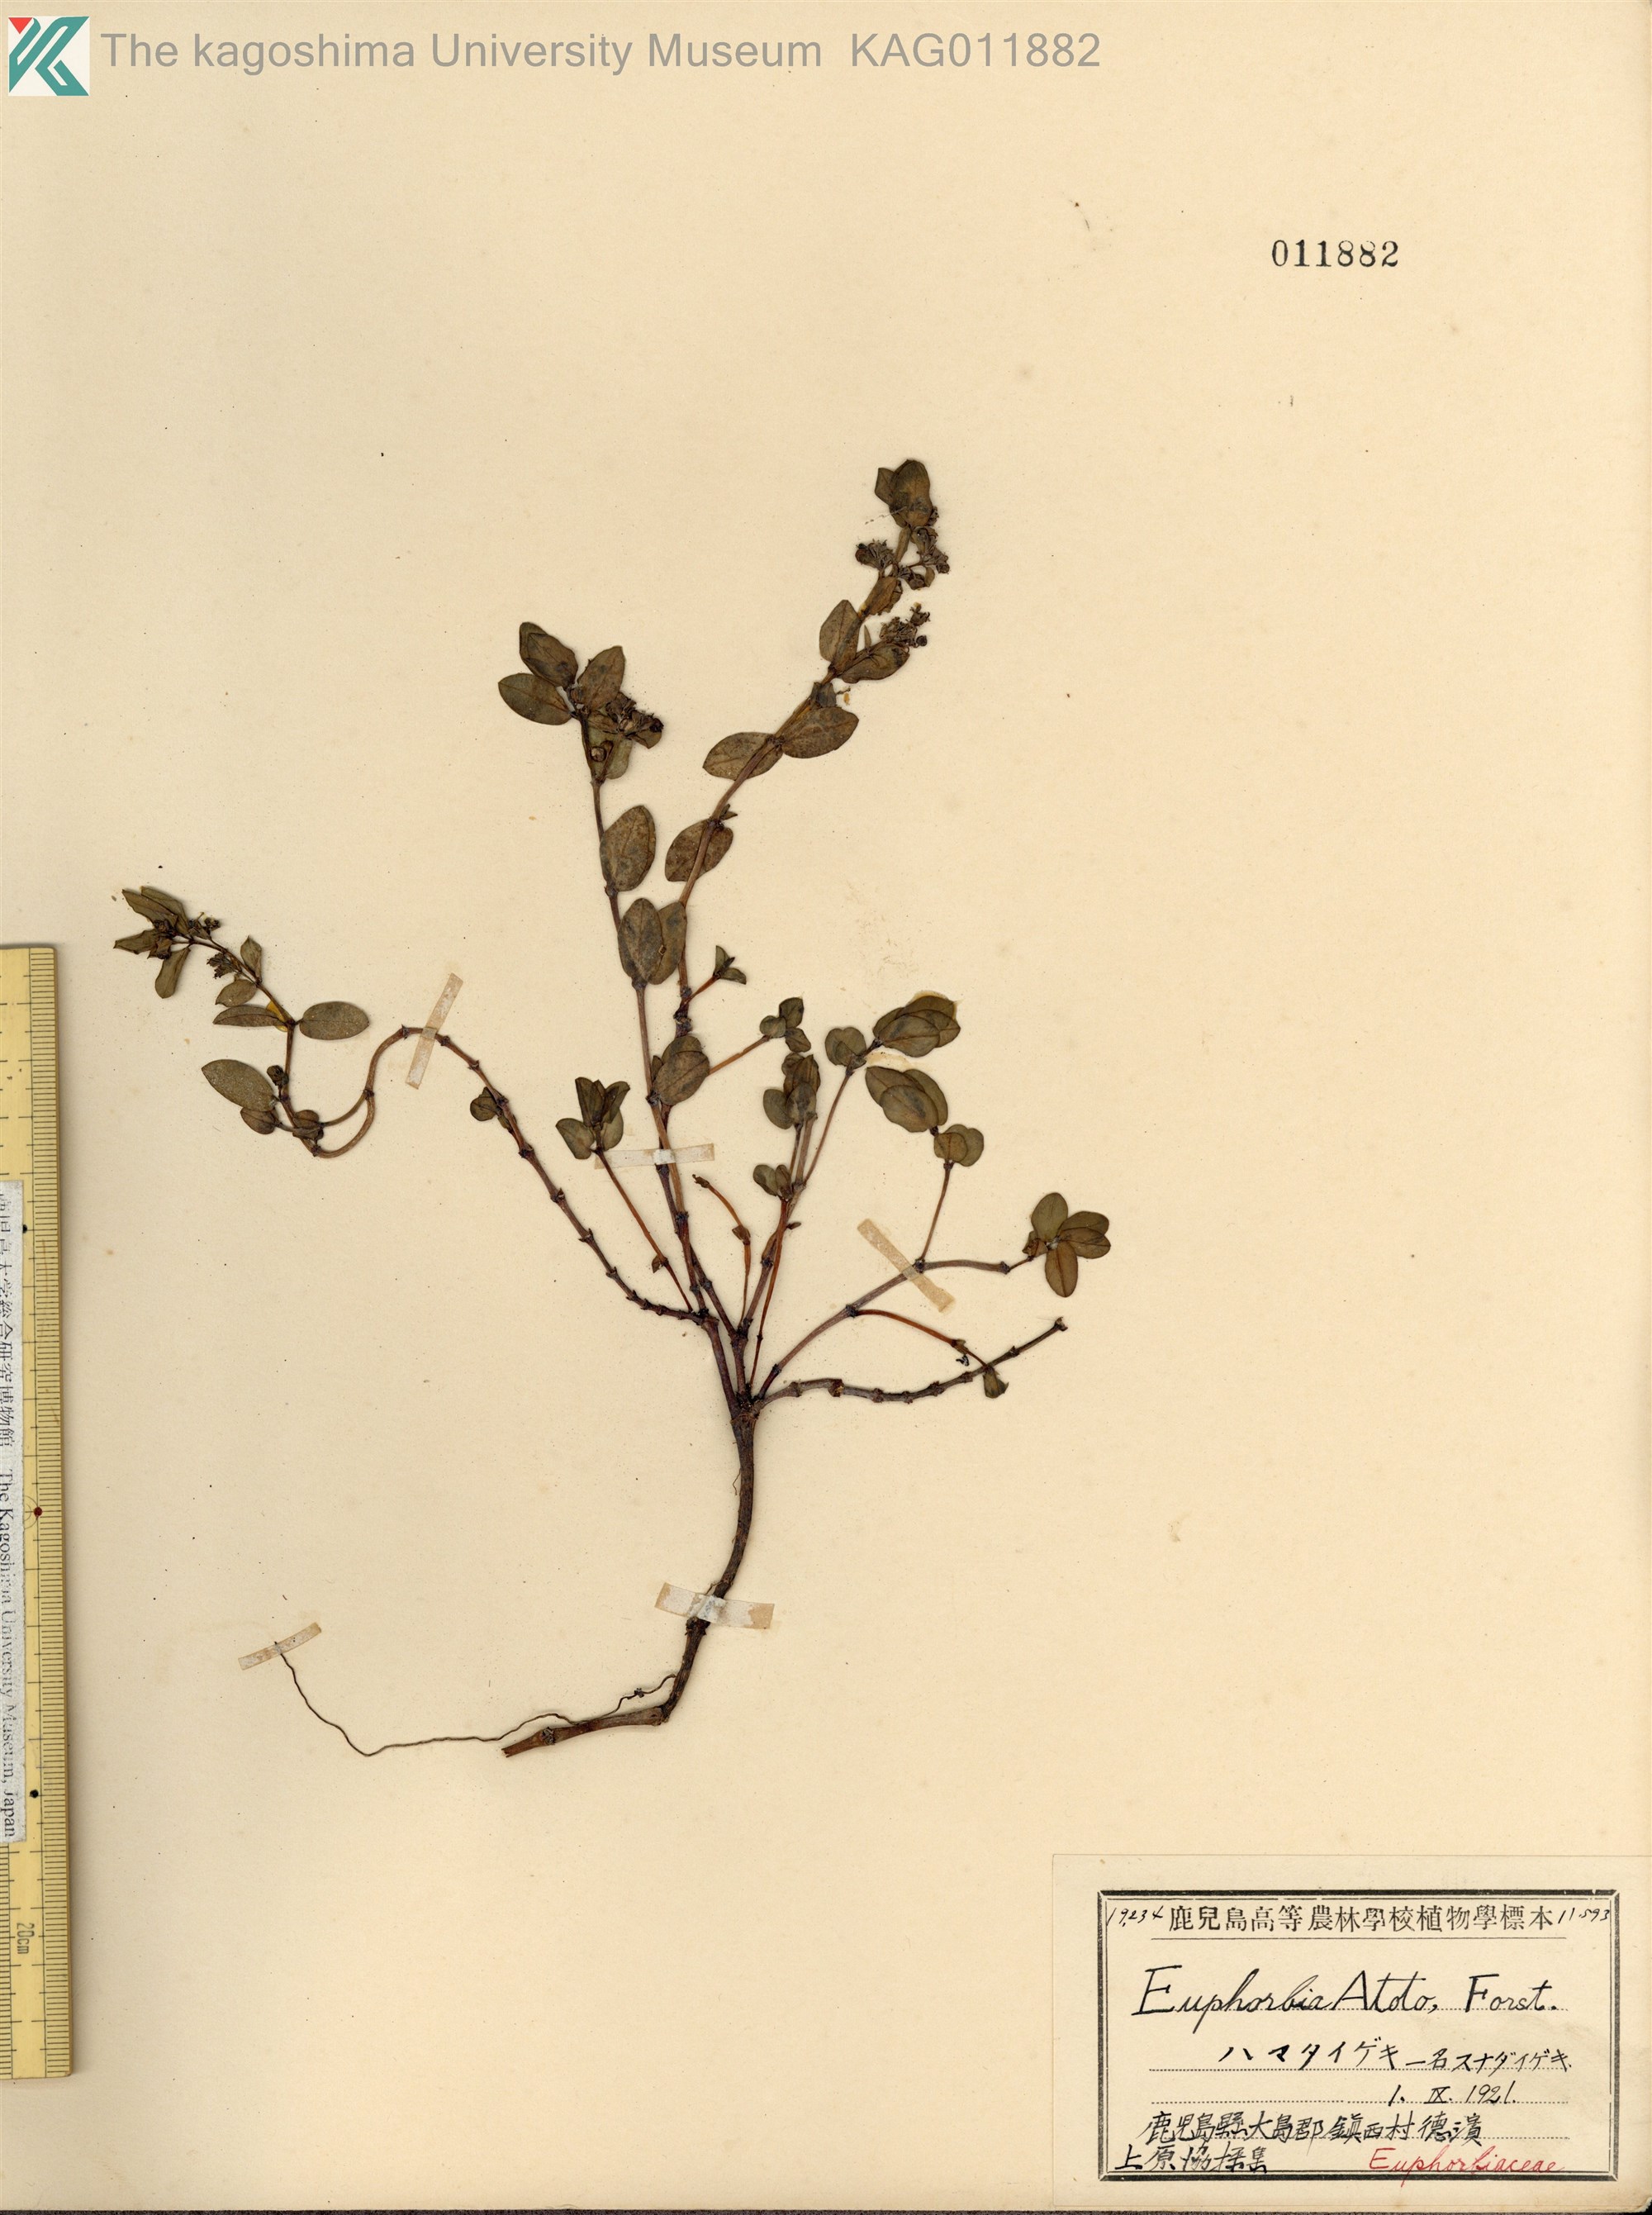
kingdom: Plantae
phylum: Tracheophyta
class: Magnoliopsida
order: Malpighiales
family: Euphorbiaceae
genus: Euphorbia
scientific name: Euphorbia chamissonis
